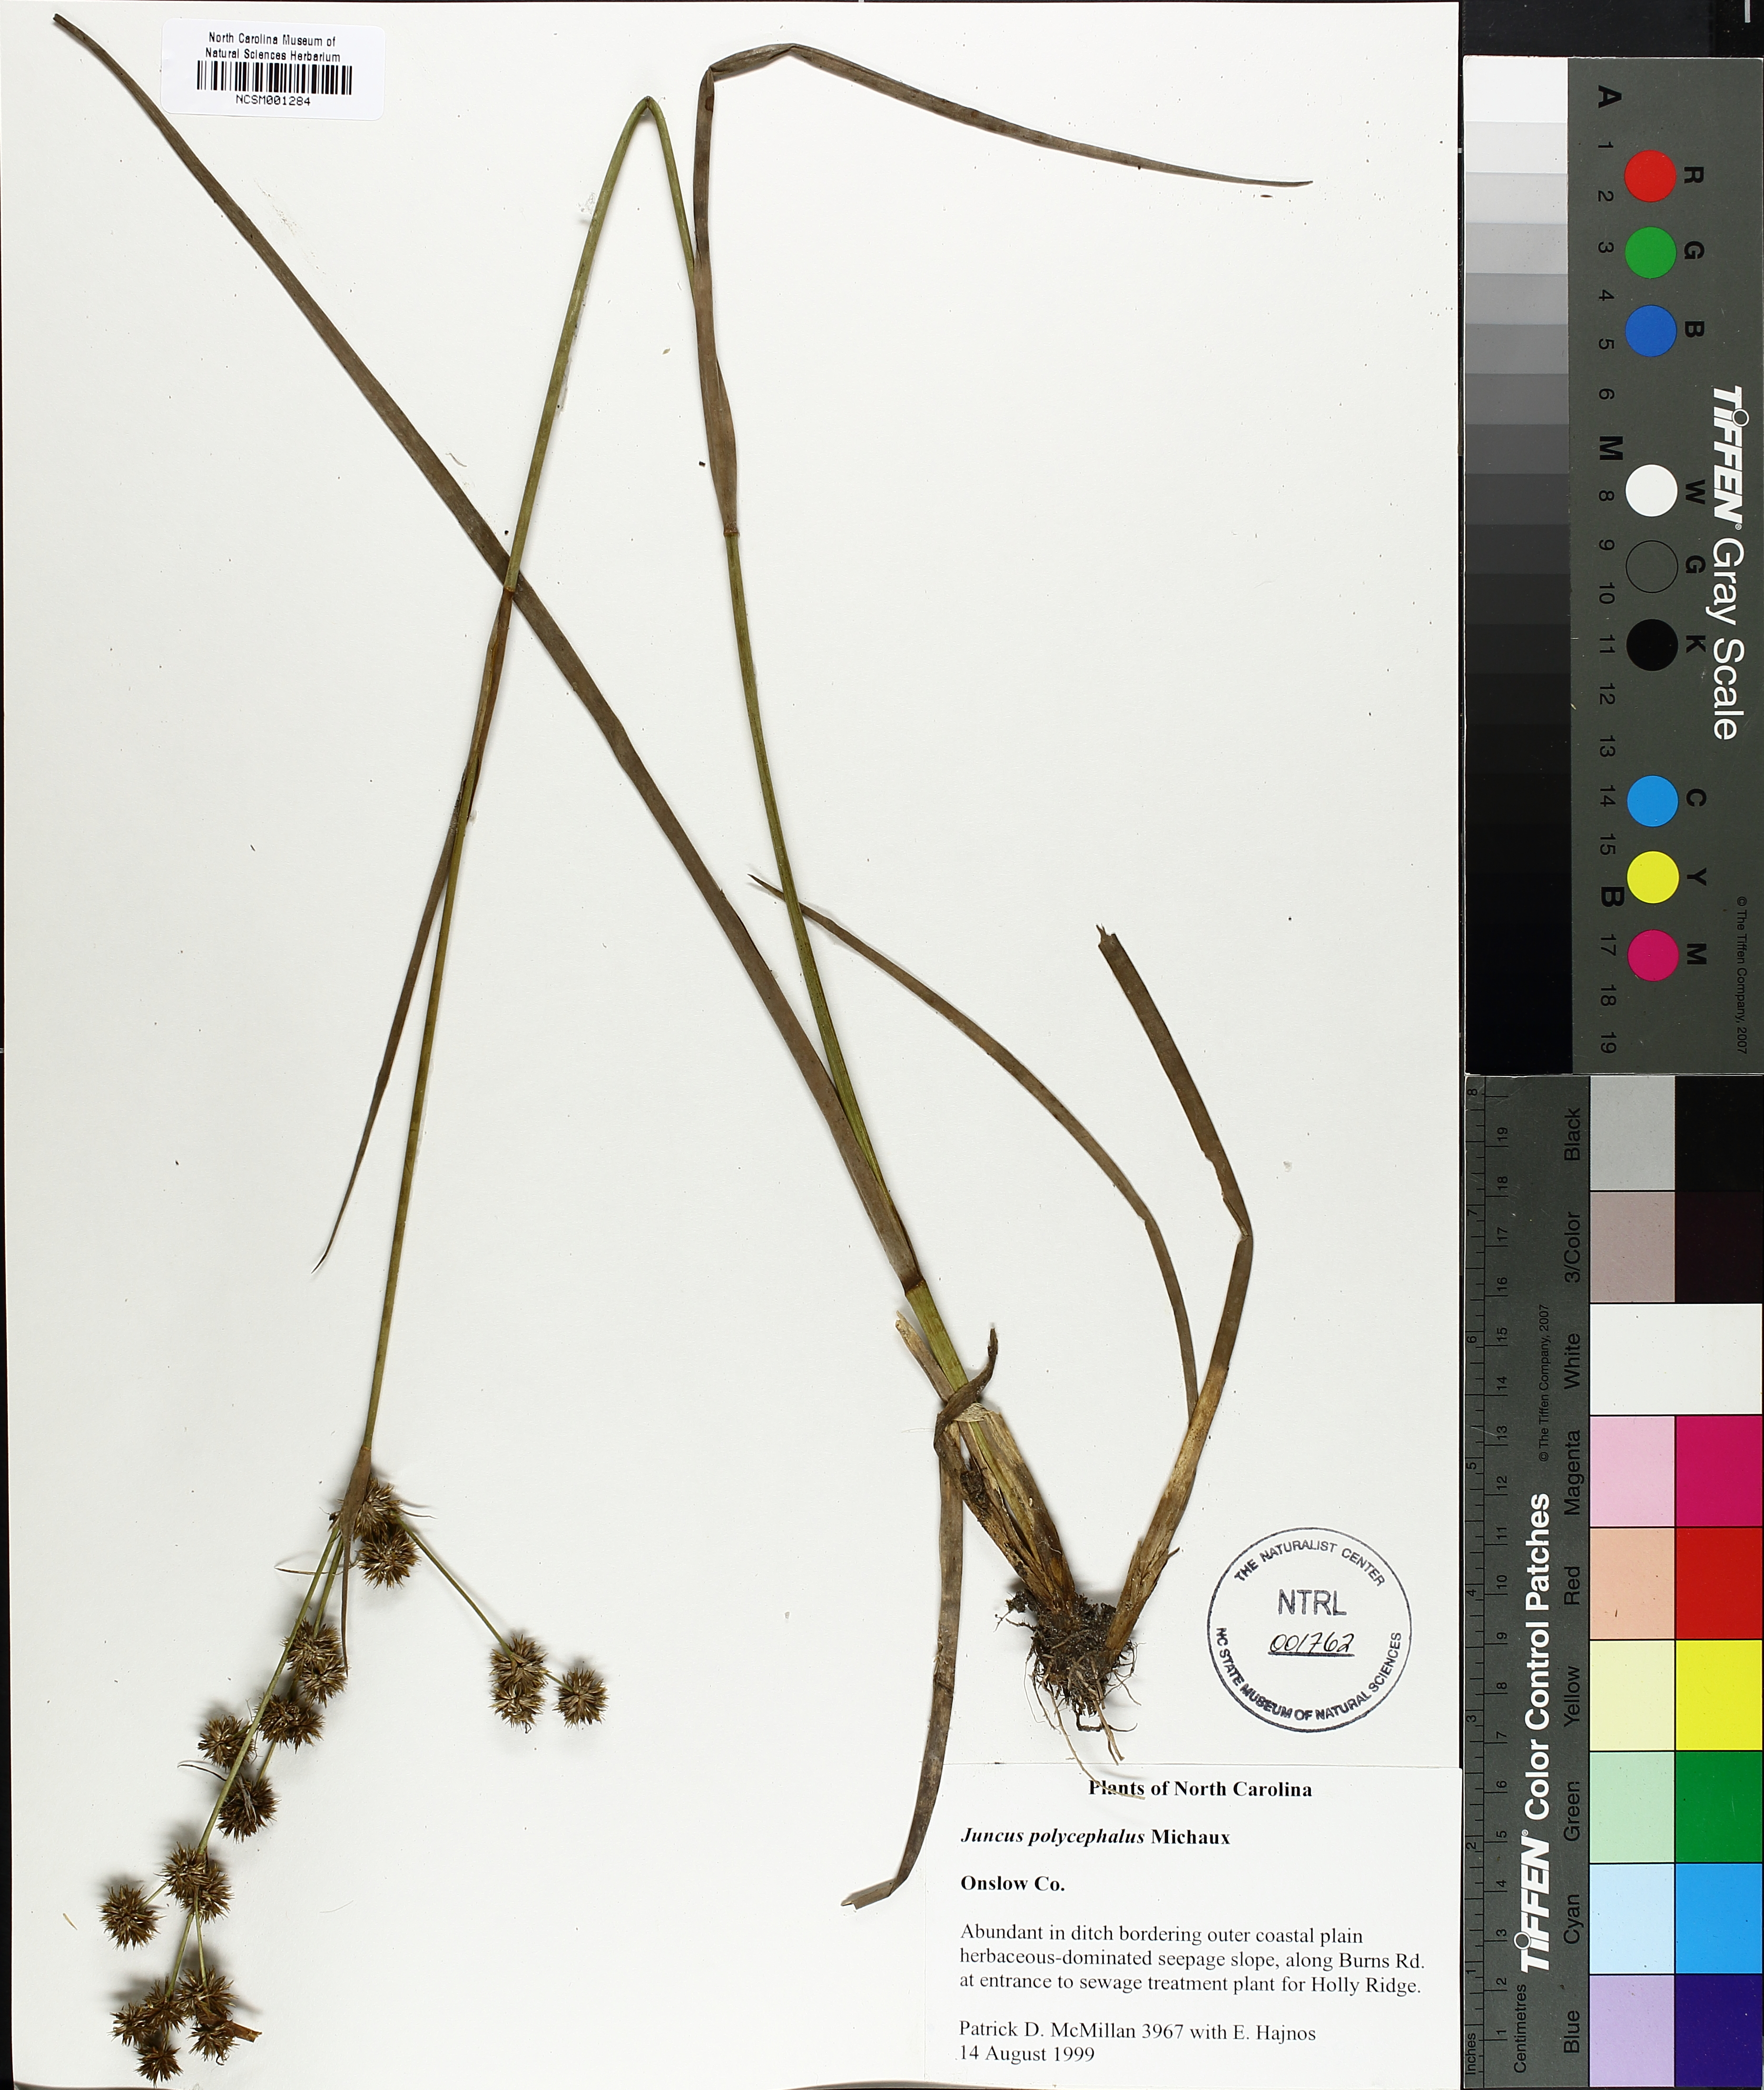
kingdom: Plantae
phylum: Tracheophyta
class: Liliopsida
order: Poales
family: Juncaceae
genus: Juncus
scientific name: Juncus polycephalus
